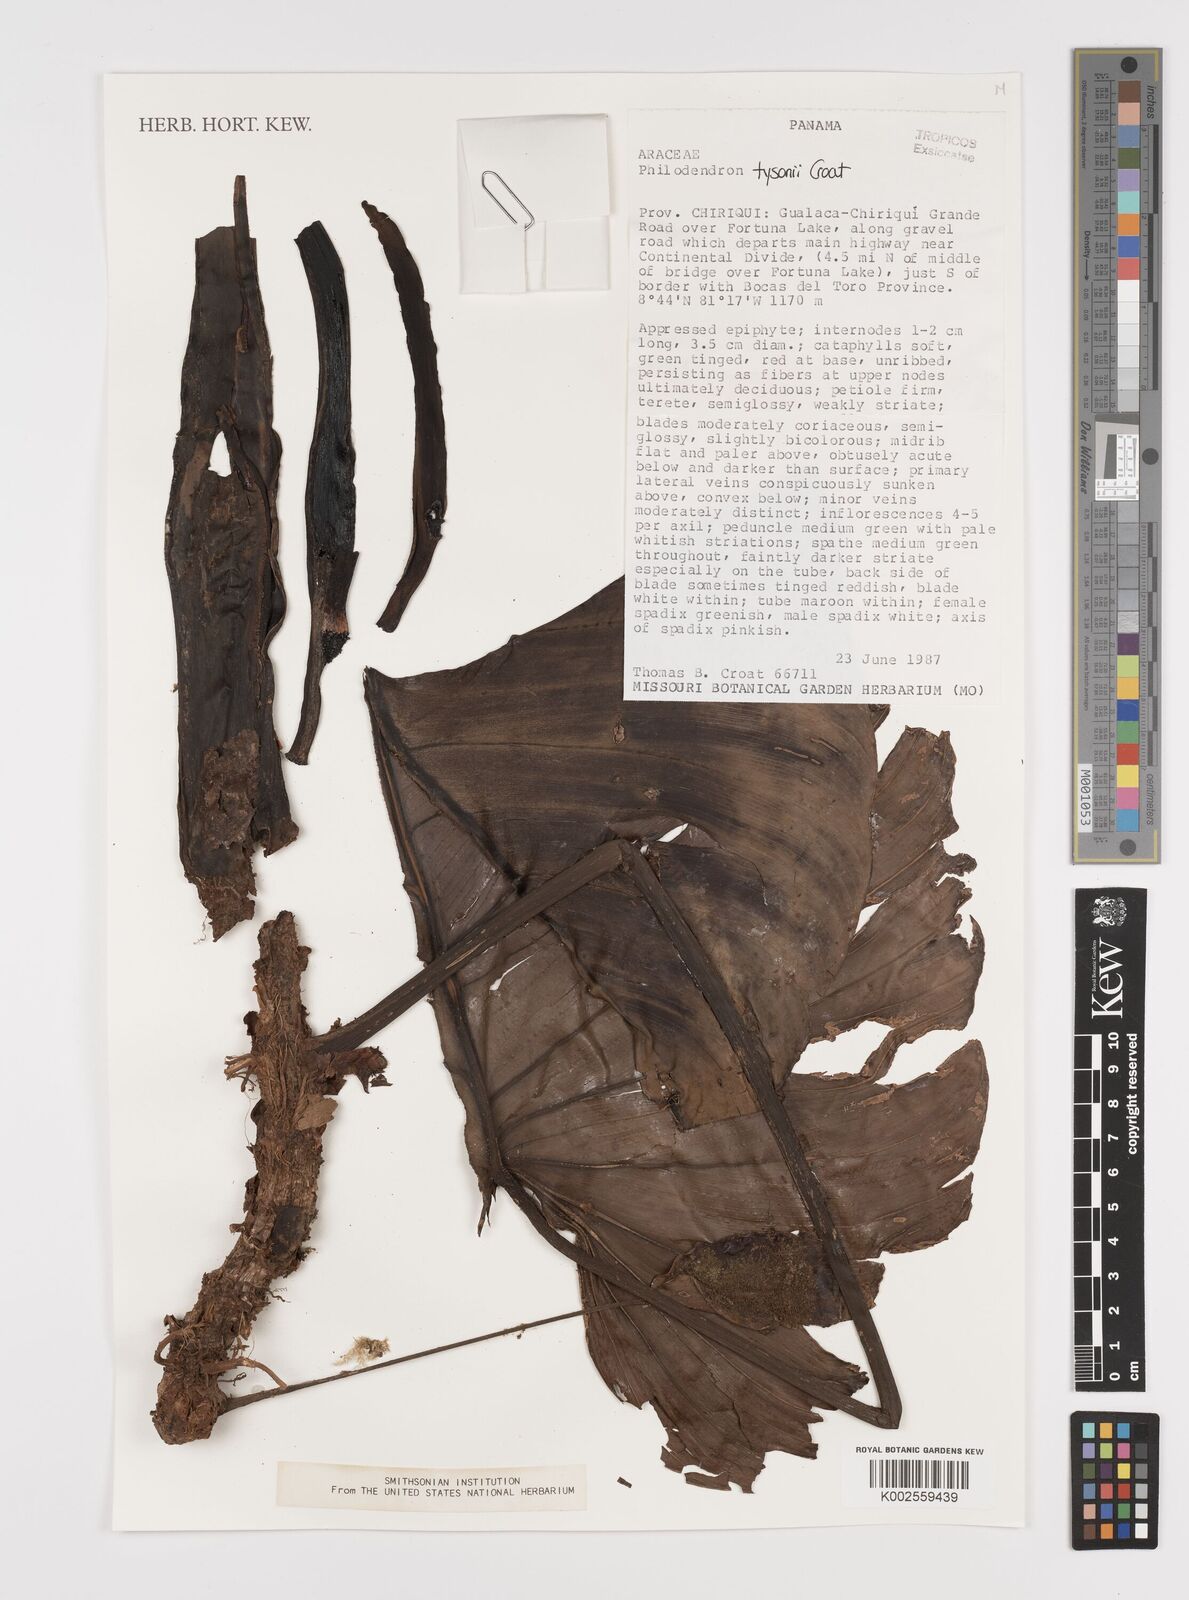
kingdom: Plantae
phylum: Tracheophyta
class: Liliopsida
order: Alismatales
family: Araceae
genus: Philodendron
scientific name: Philodendron tysonii
